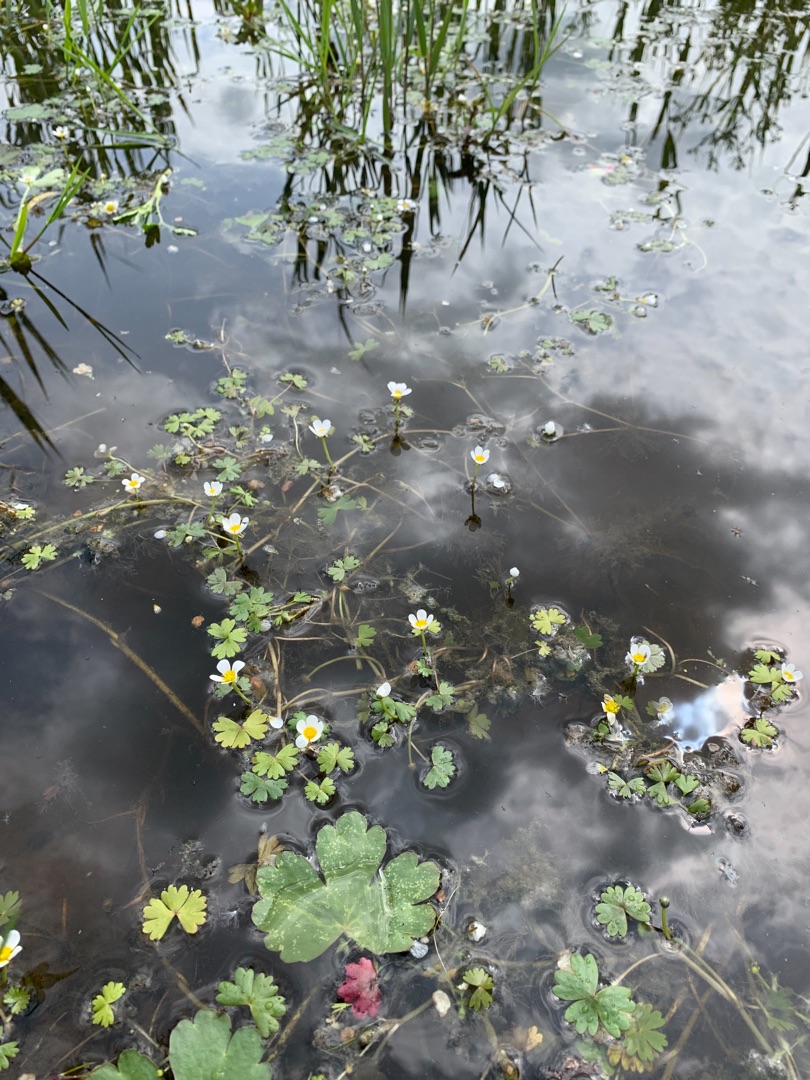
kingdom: Plantae
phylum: Tracheophyta
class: Magnoliopsida
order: Ranunculales
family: Ranunculaceae
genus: Ranunculus
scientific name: Ranunculus aquatilis
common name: Almindelig vandranunkel
